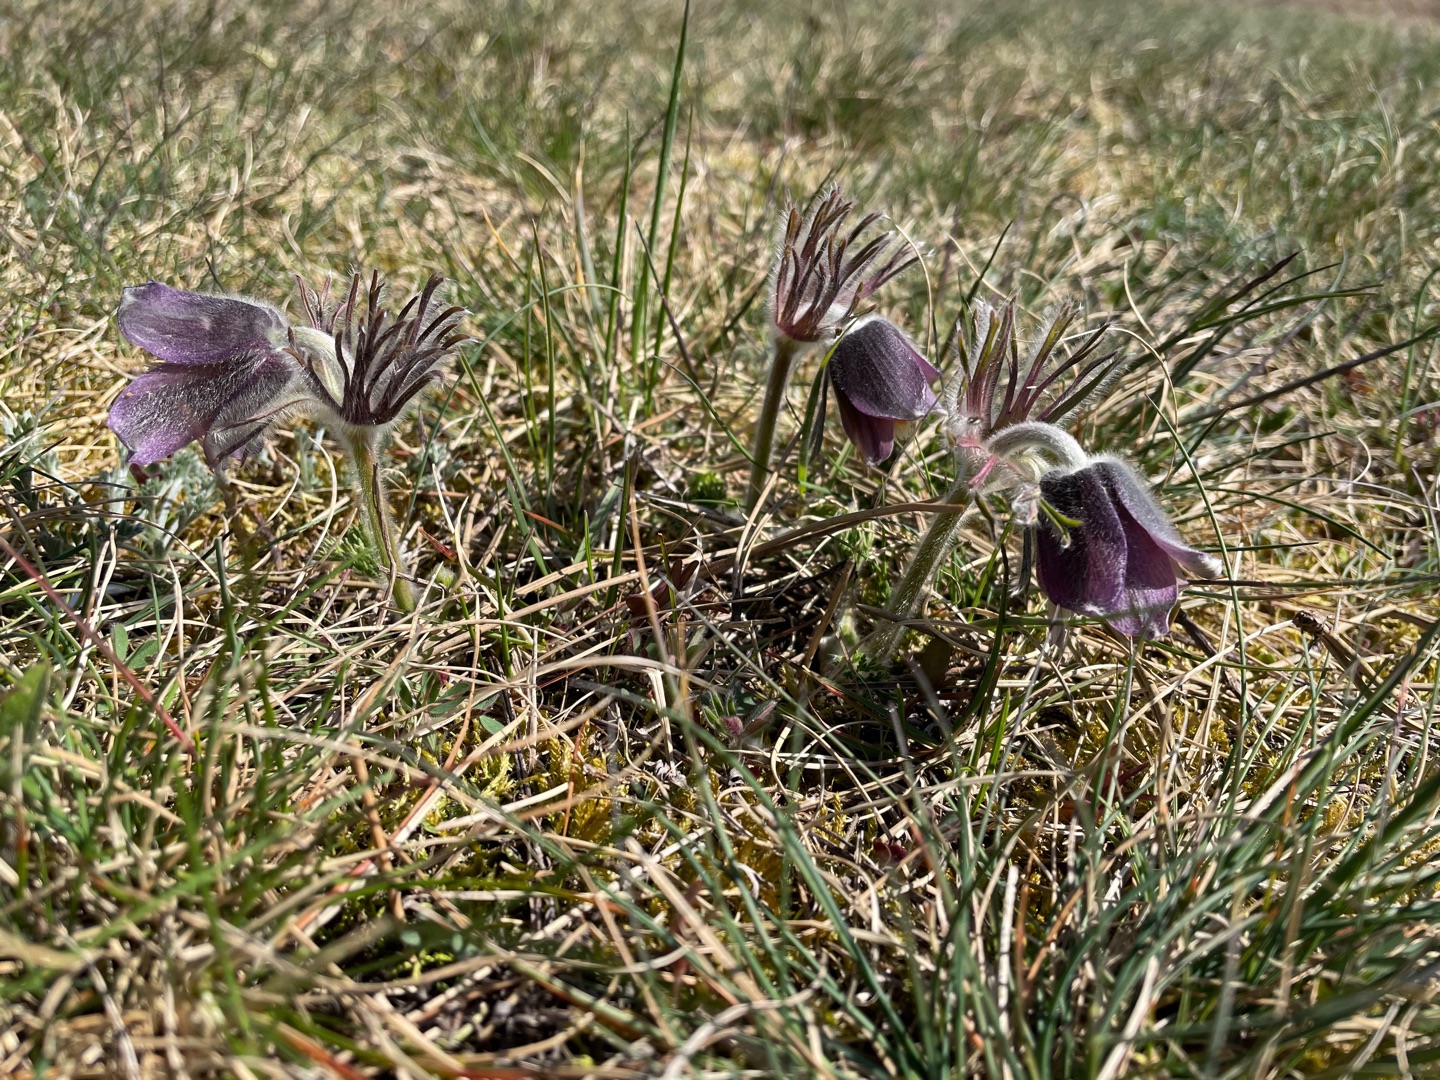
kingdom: Plantae
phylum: Tracheophyta
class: Magnoliopsida
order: Ranunculales
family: Ranunculaceae
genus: Pulsatilla
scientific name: Pulsatilla pratensis
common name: Nikkende kobjælde
